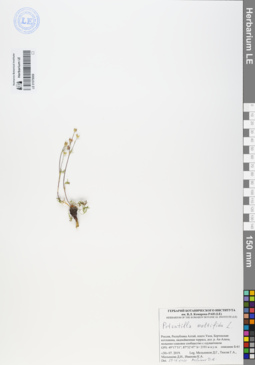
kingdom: Plantae
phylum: Tracheophyta
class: Magnoliopsida
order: Rosales
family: Rosaceae
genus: Potentilla
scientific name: Potentilla multifida
